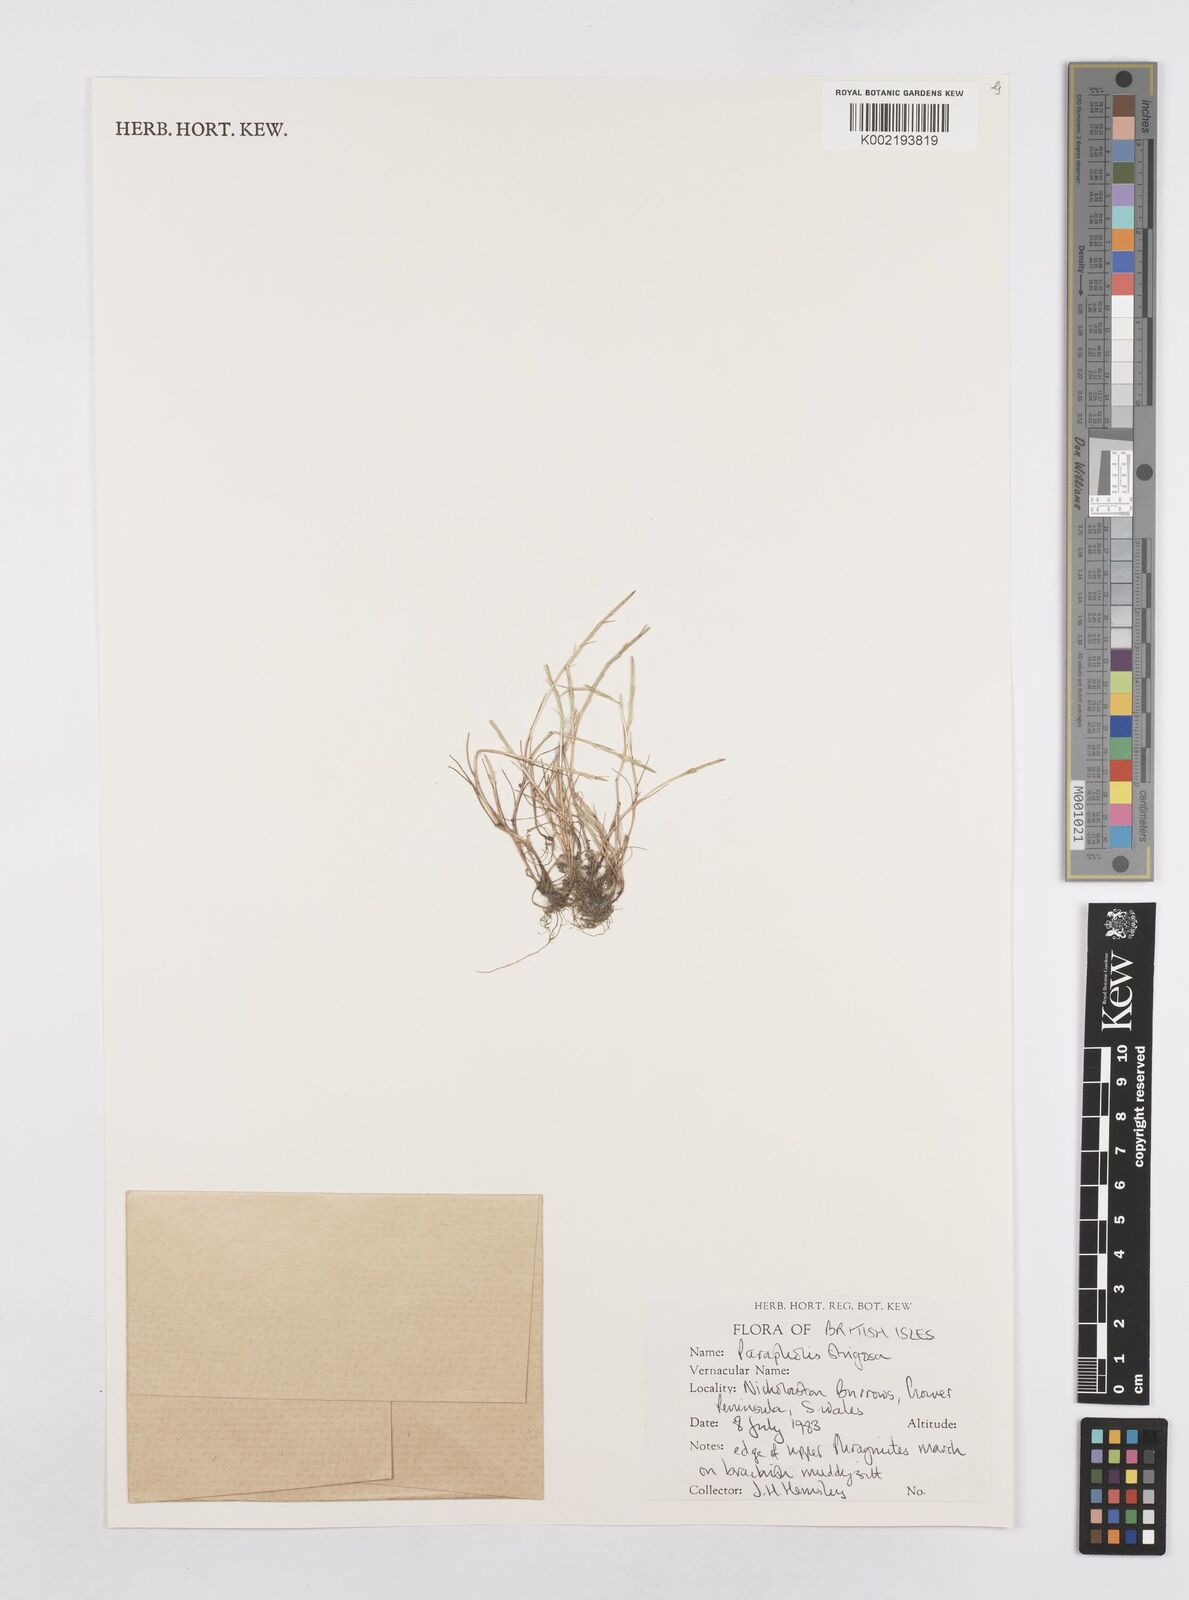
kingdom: Plantae
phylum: Tracheophyta
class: Liliopsida
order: Poales
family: Poaceae
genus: Parapholis
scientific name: Parapholis strigosa
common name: Hard-grass
